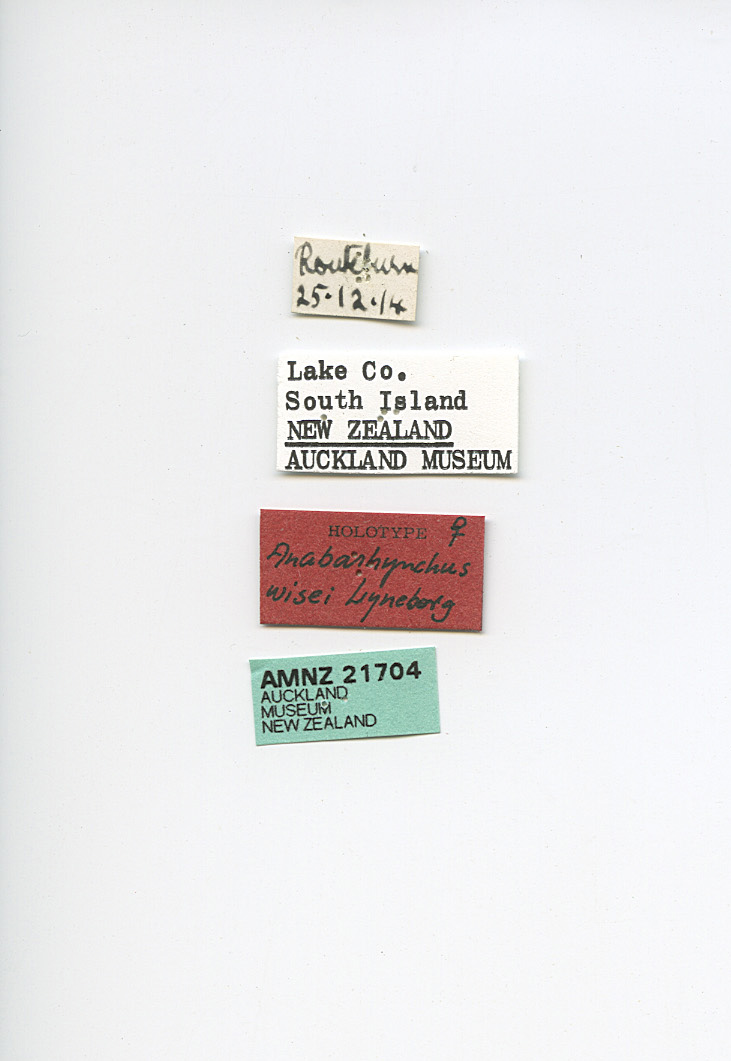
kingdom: Animalia
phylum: Arthropoda
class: Insecta
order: Diptera
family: Therevidae
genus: Anabarhynchus
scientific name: Anabarhynchus wisei
